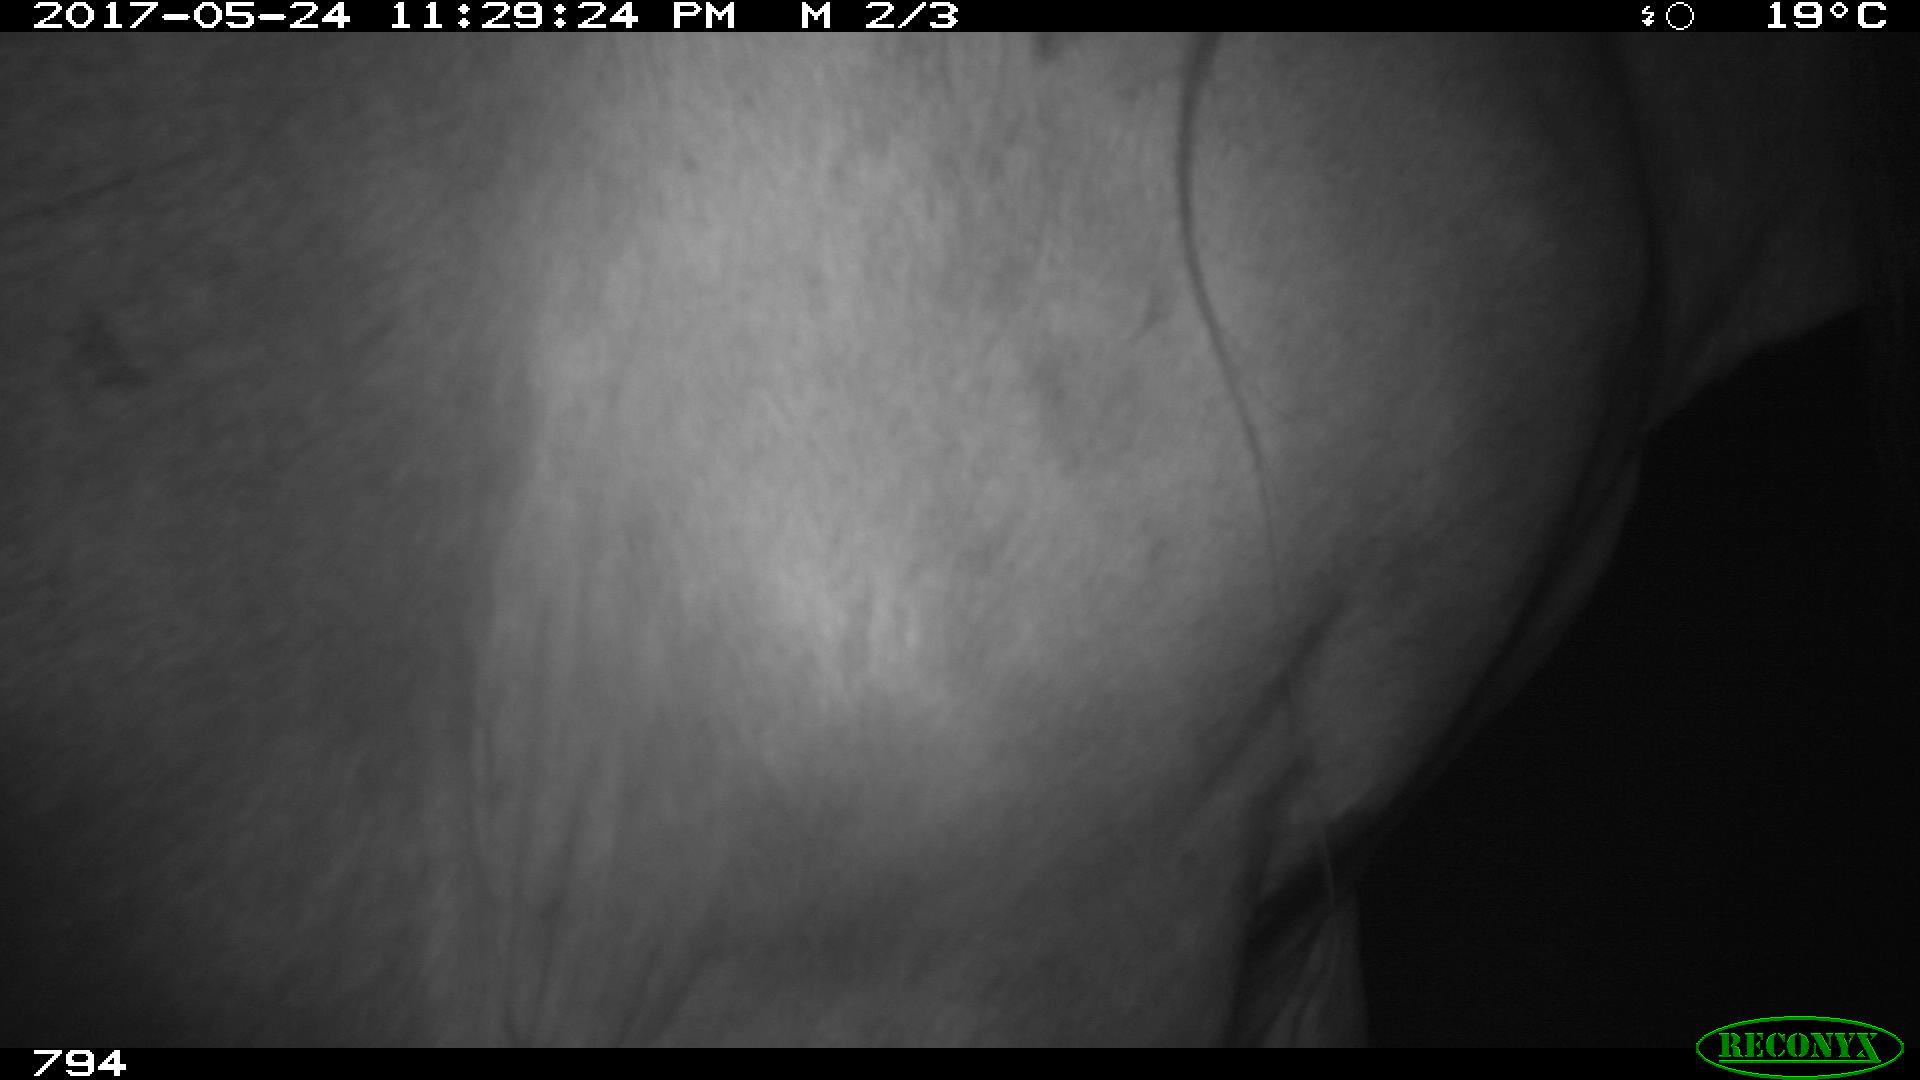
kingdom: Animalia
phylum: Chordata
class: Mammalia
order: Perissodactyla
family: Equidae
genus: Equus
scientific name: Equus caballus
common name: Horse
